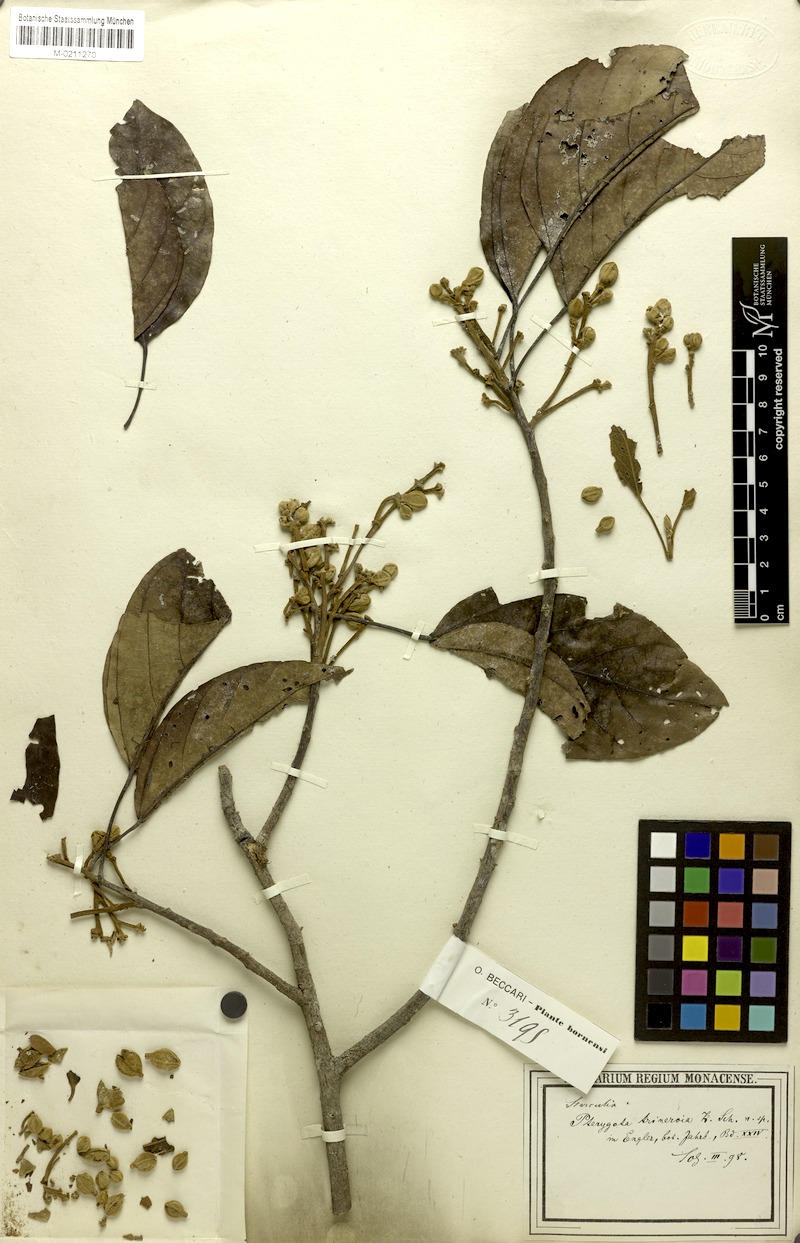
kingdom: Plantae
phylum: Tracheophyta
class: Magnoliopsida
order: Malvales
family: Malvaceae
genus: Pterygota
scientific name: Pterygota trinervia
